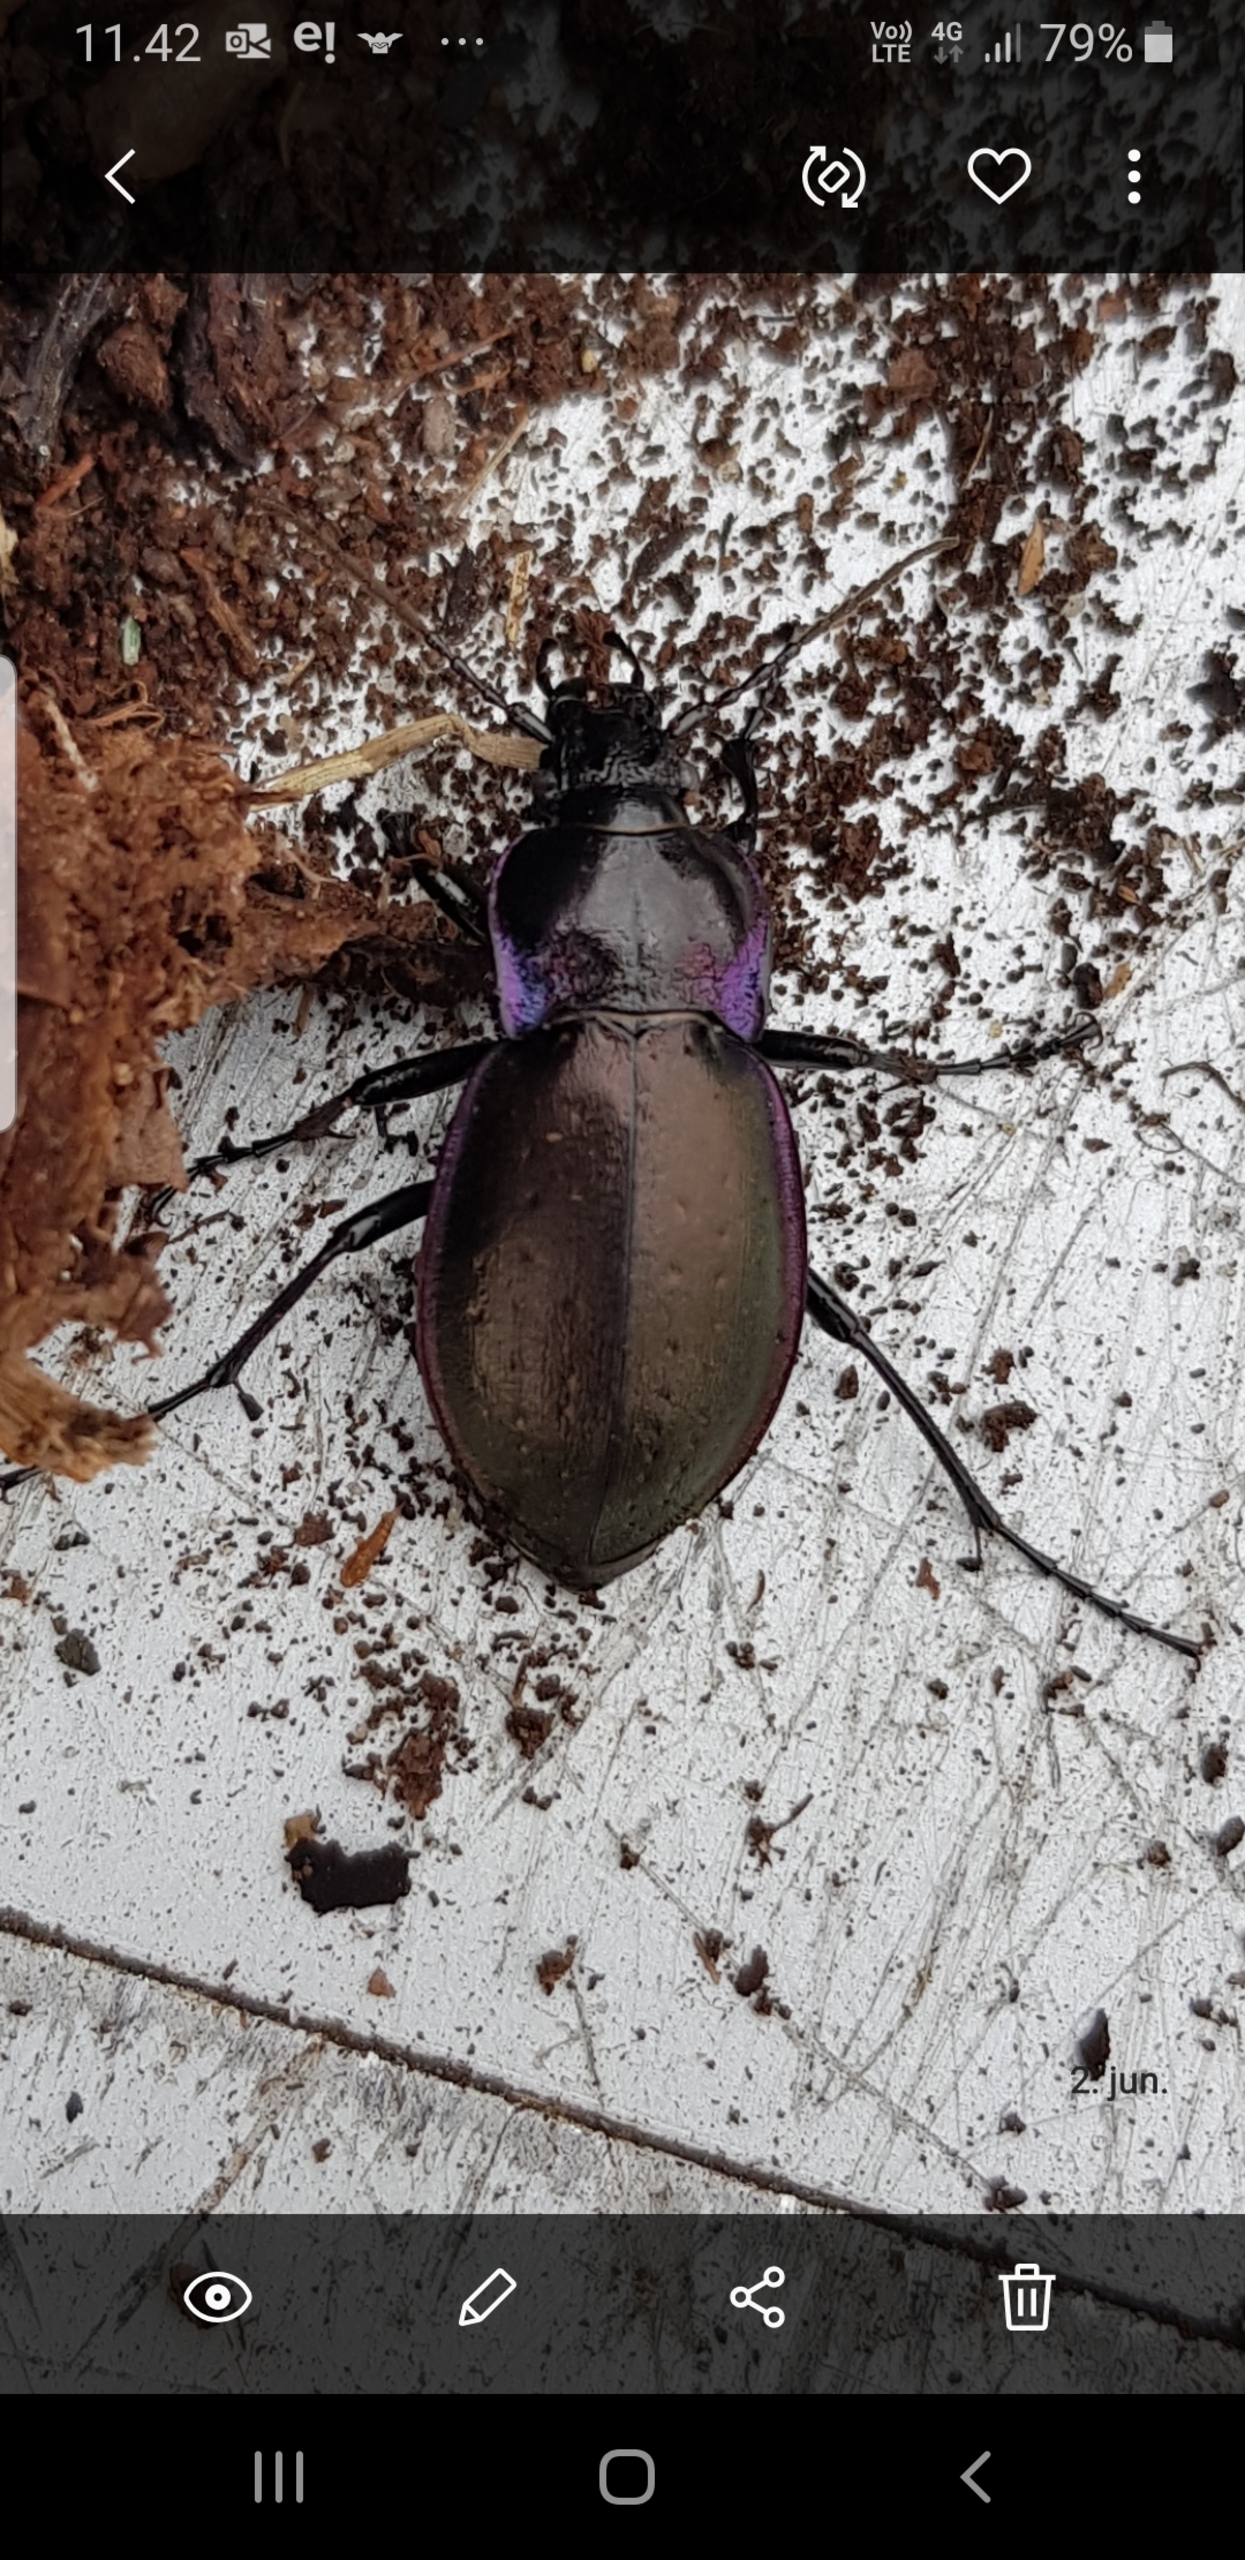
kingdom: Animalia
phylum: Arthropoda
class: Insecta
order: Coleoptera
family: Carabidae
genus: Carabus
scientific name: Carabus nemoralis
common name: Kratløber
